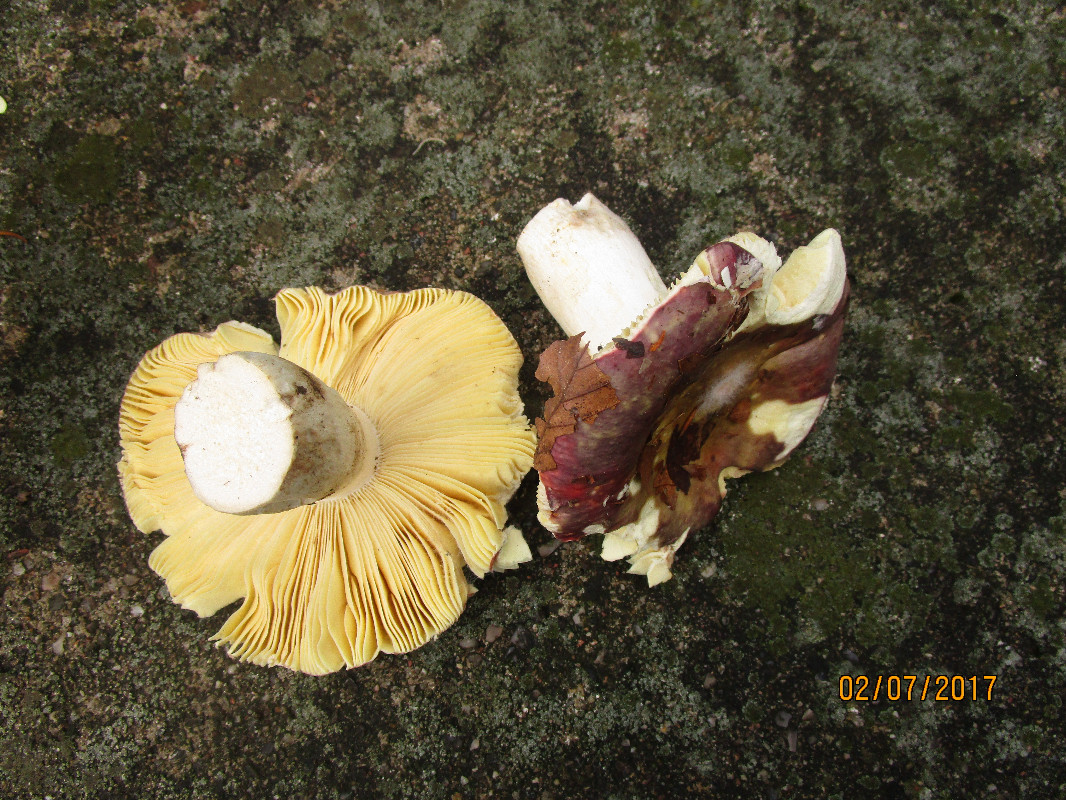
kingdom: Fungi
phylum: Basidiomycota
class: Agaricomycetes
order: Russulales
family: Russulaceae
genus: Russula
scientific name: Russula romellii
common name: romells skørhat
